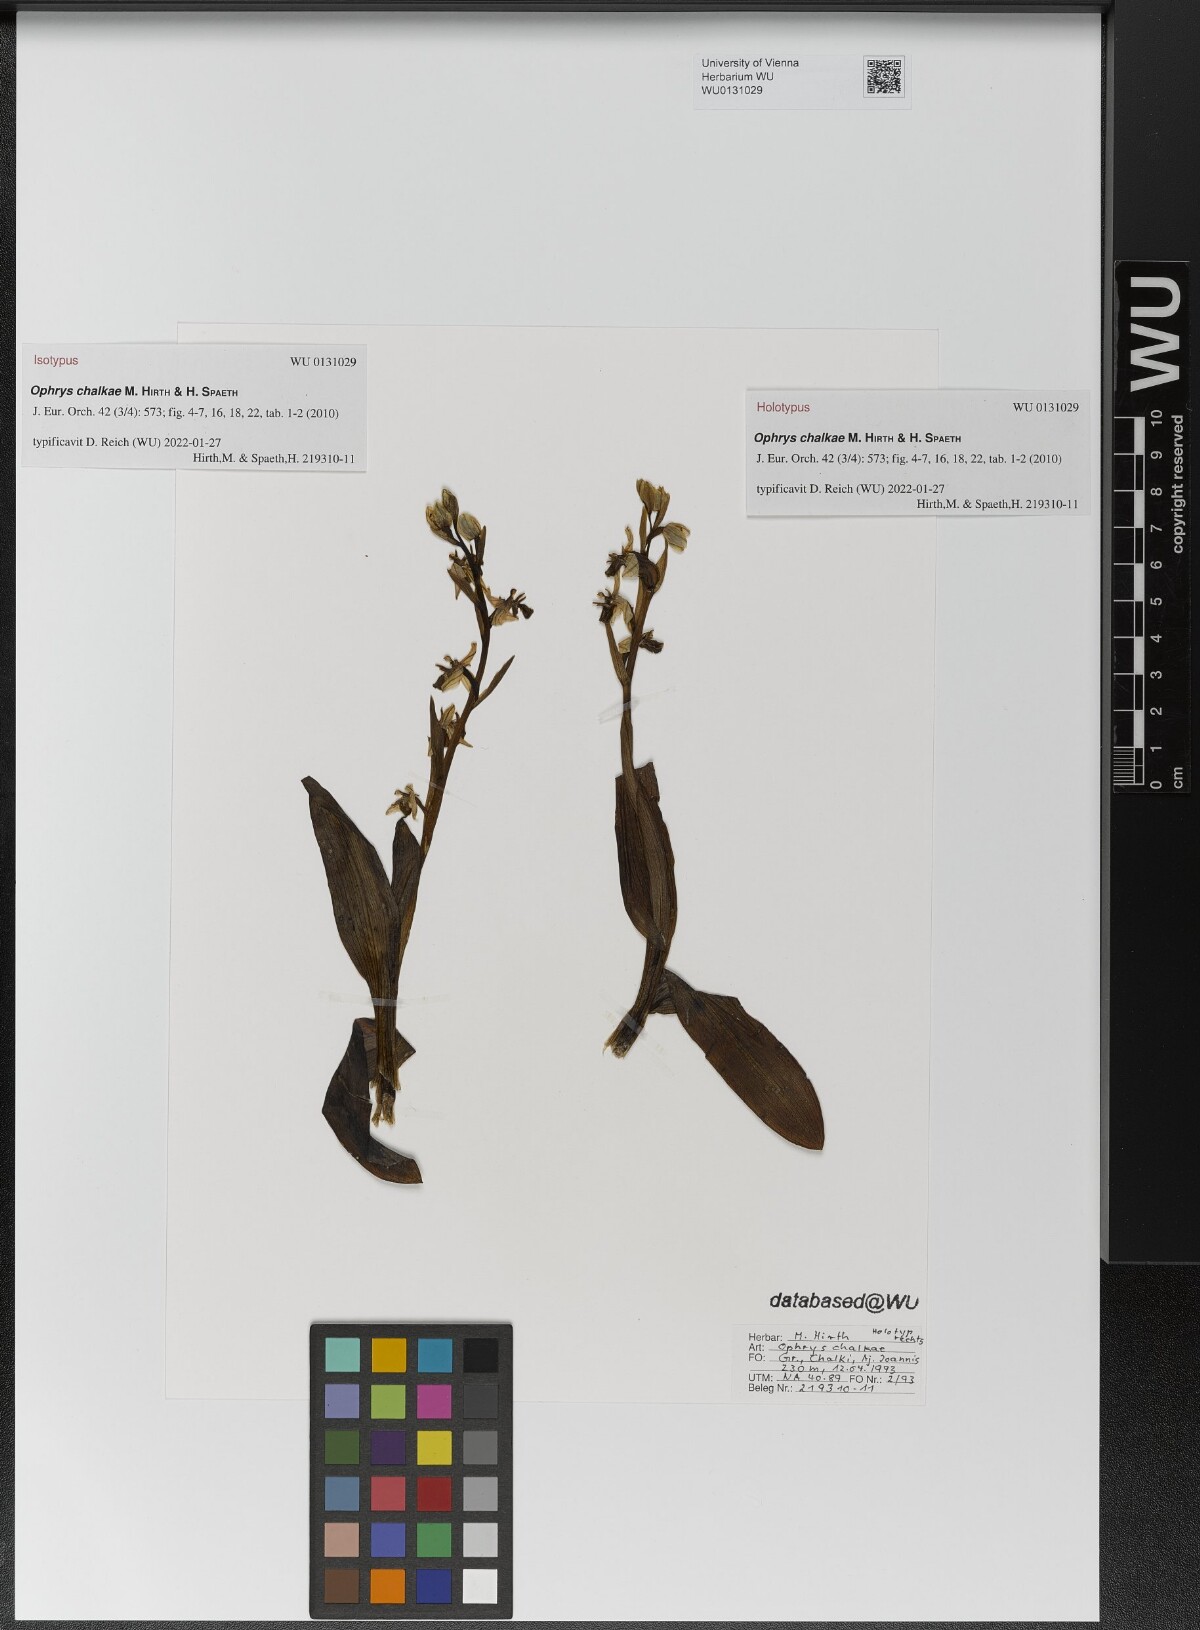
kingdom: Plantae
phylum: Tracheophyta
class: Liliopsida
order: Asparagales
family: Orchidaceae
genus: Ophrys
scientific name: Ophrys vicina
